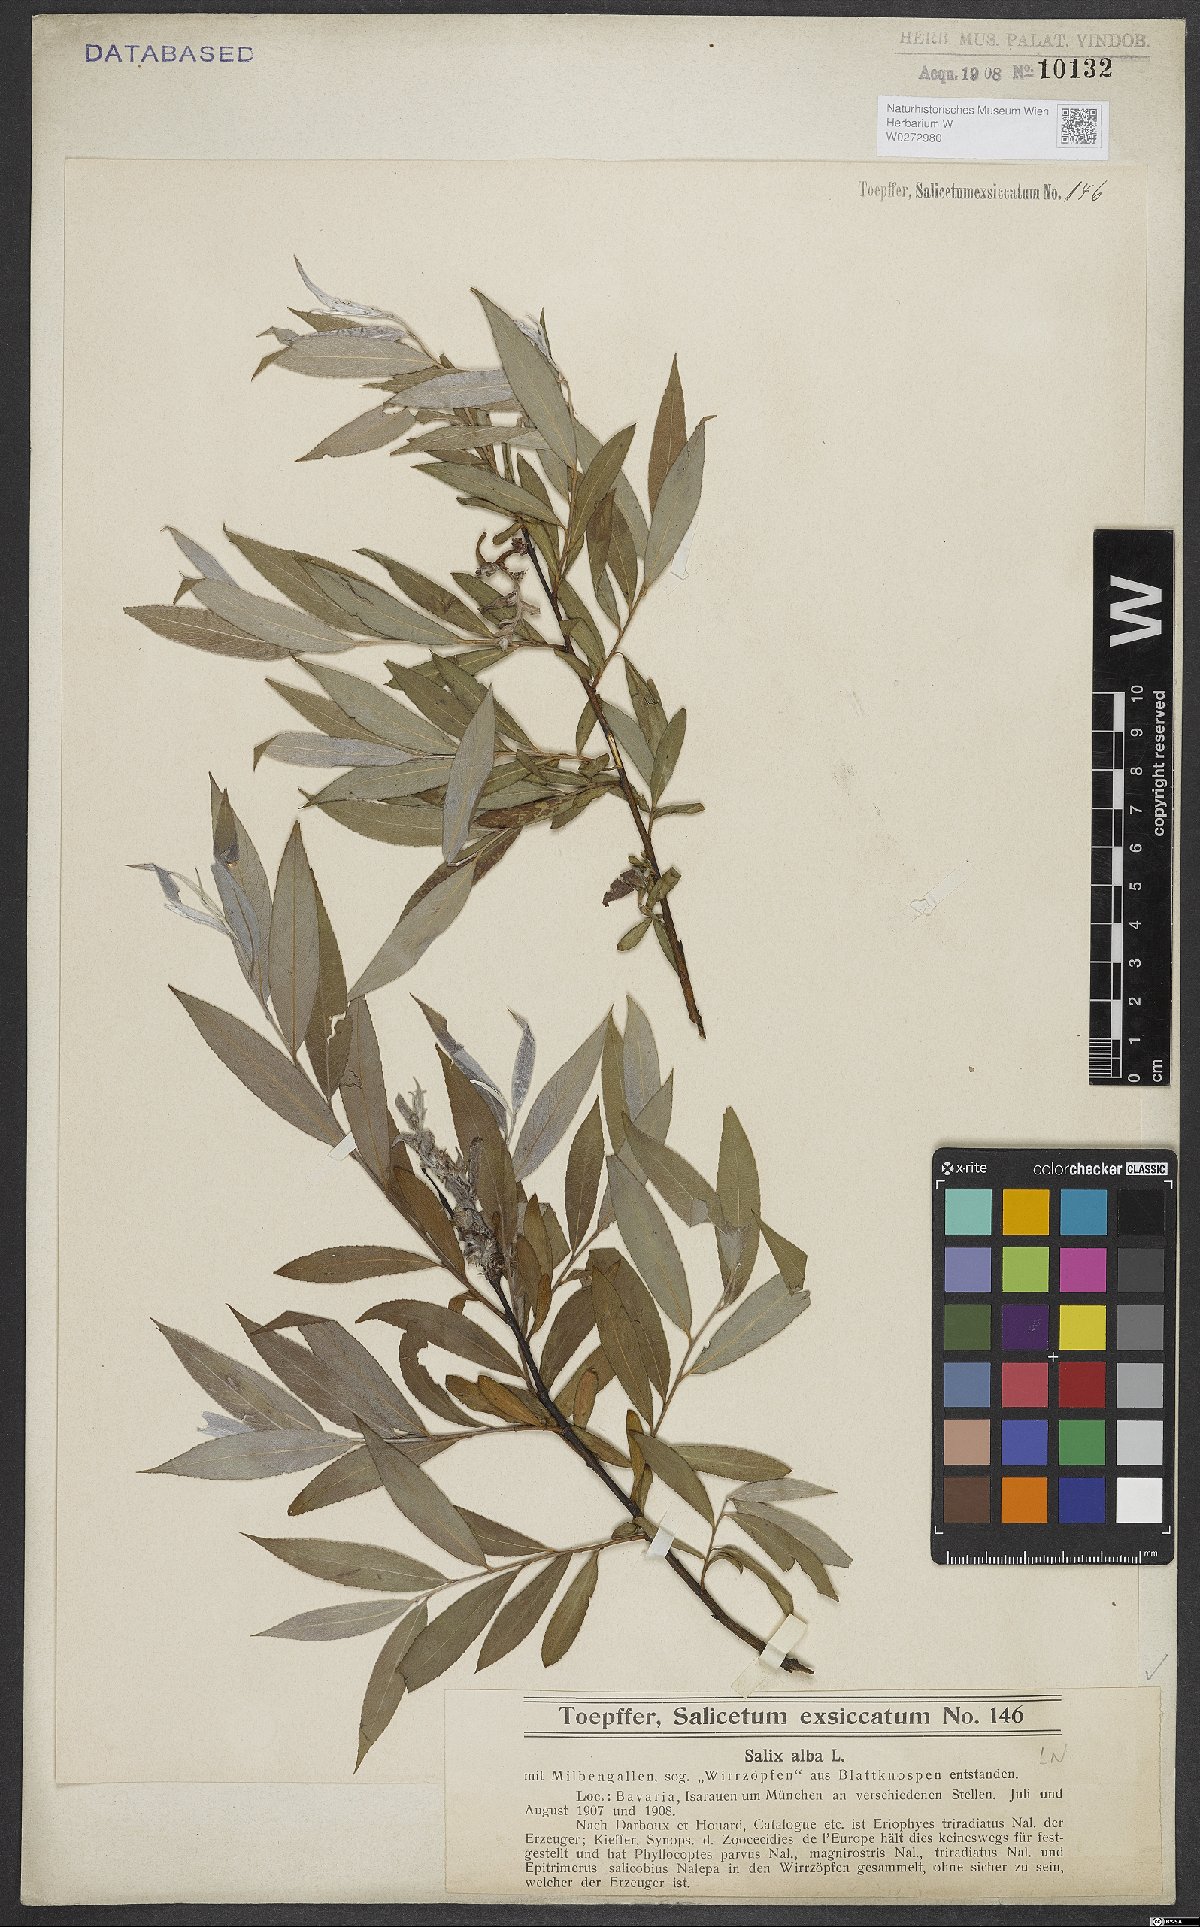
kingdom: Plantae
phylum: Tracheophyta
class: Magnoliopsida
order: Malpighiales
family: Salicaceae
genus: Salix
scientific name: Salix alba
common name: White willow
